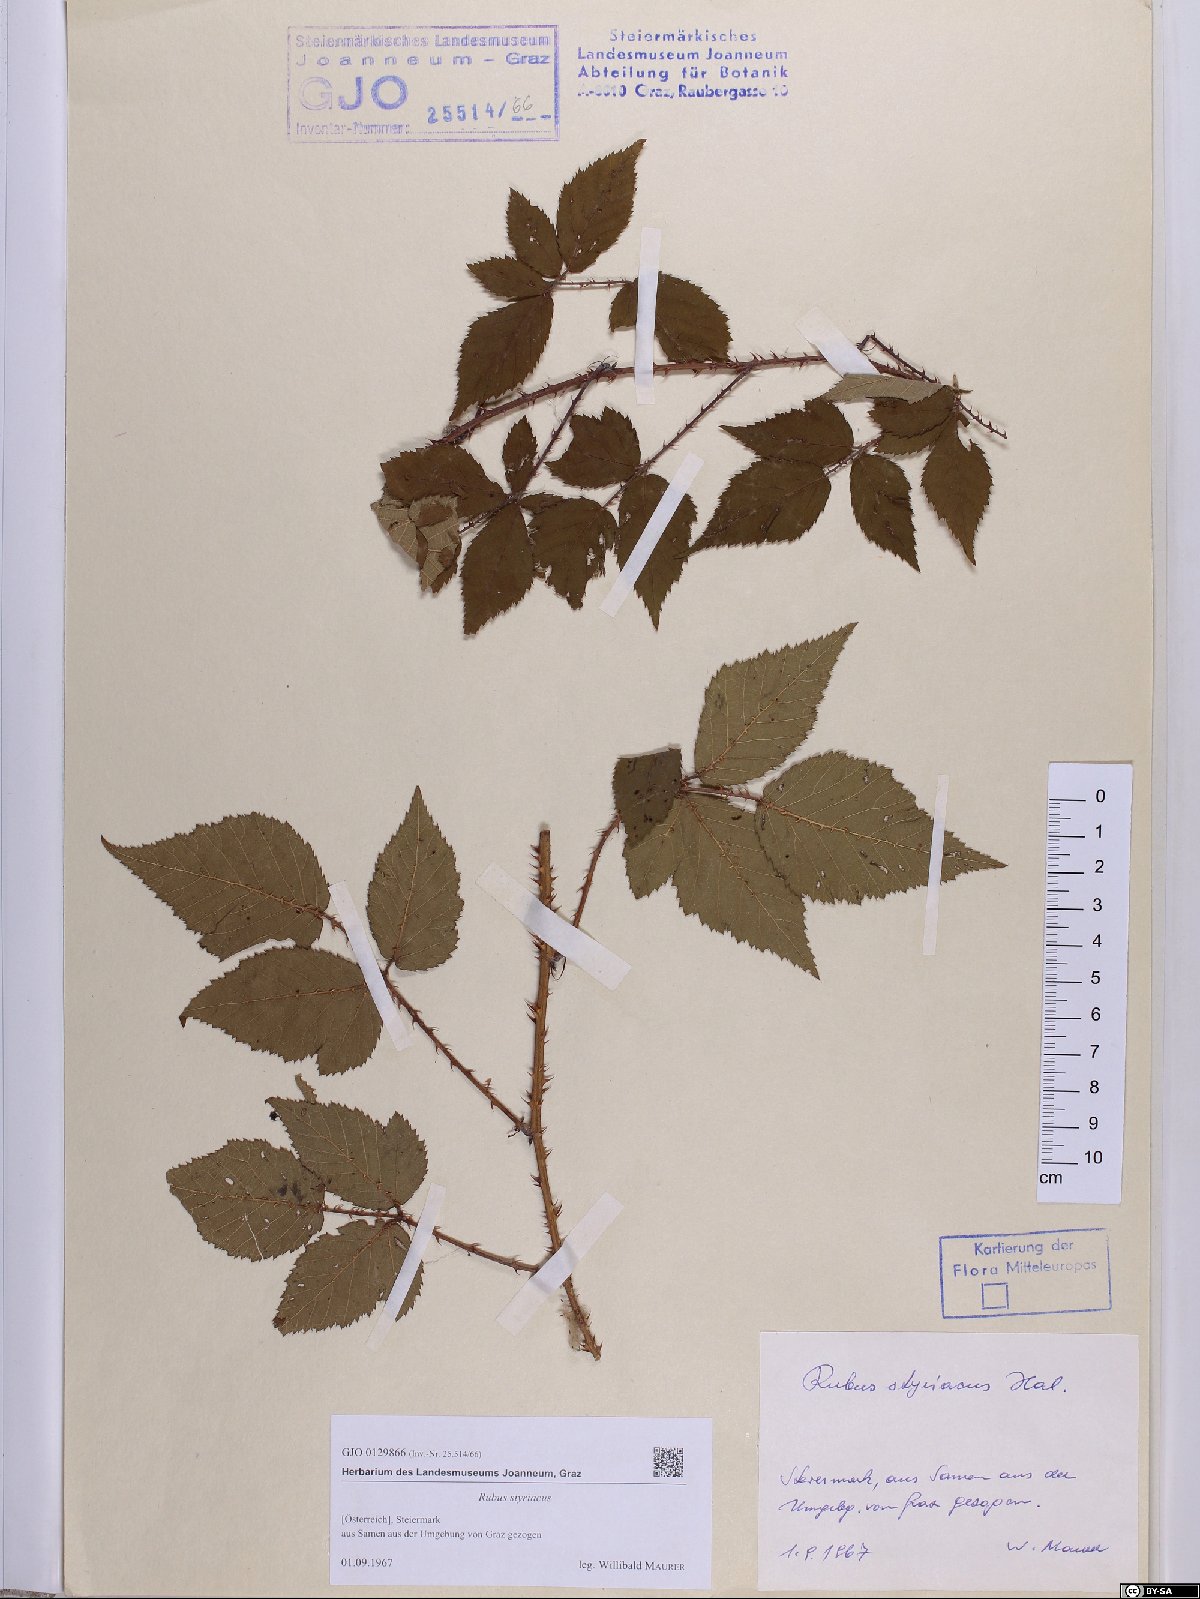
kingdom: Plantae
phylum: Tracheophyta
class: Magnoliopsida
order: Rosales
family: Rosaceae
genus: Rubus
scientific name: Rubus styriacus
